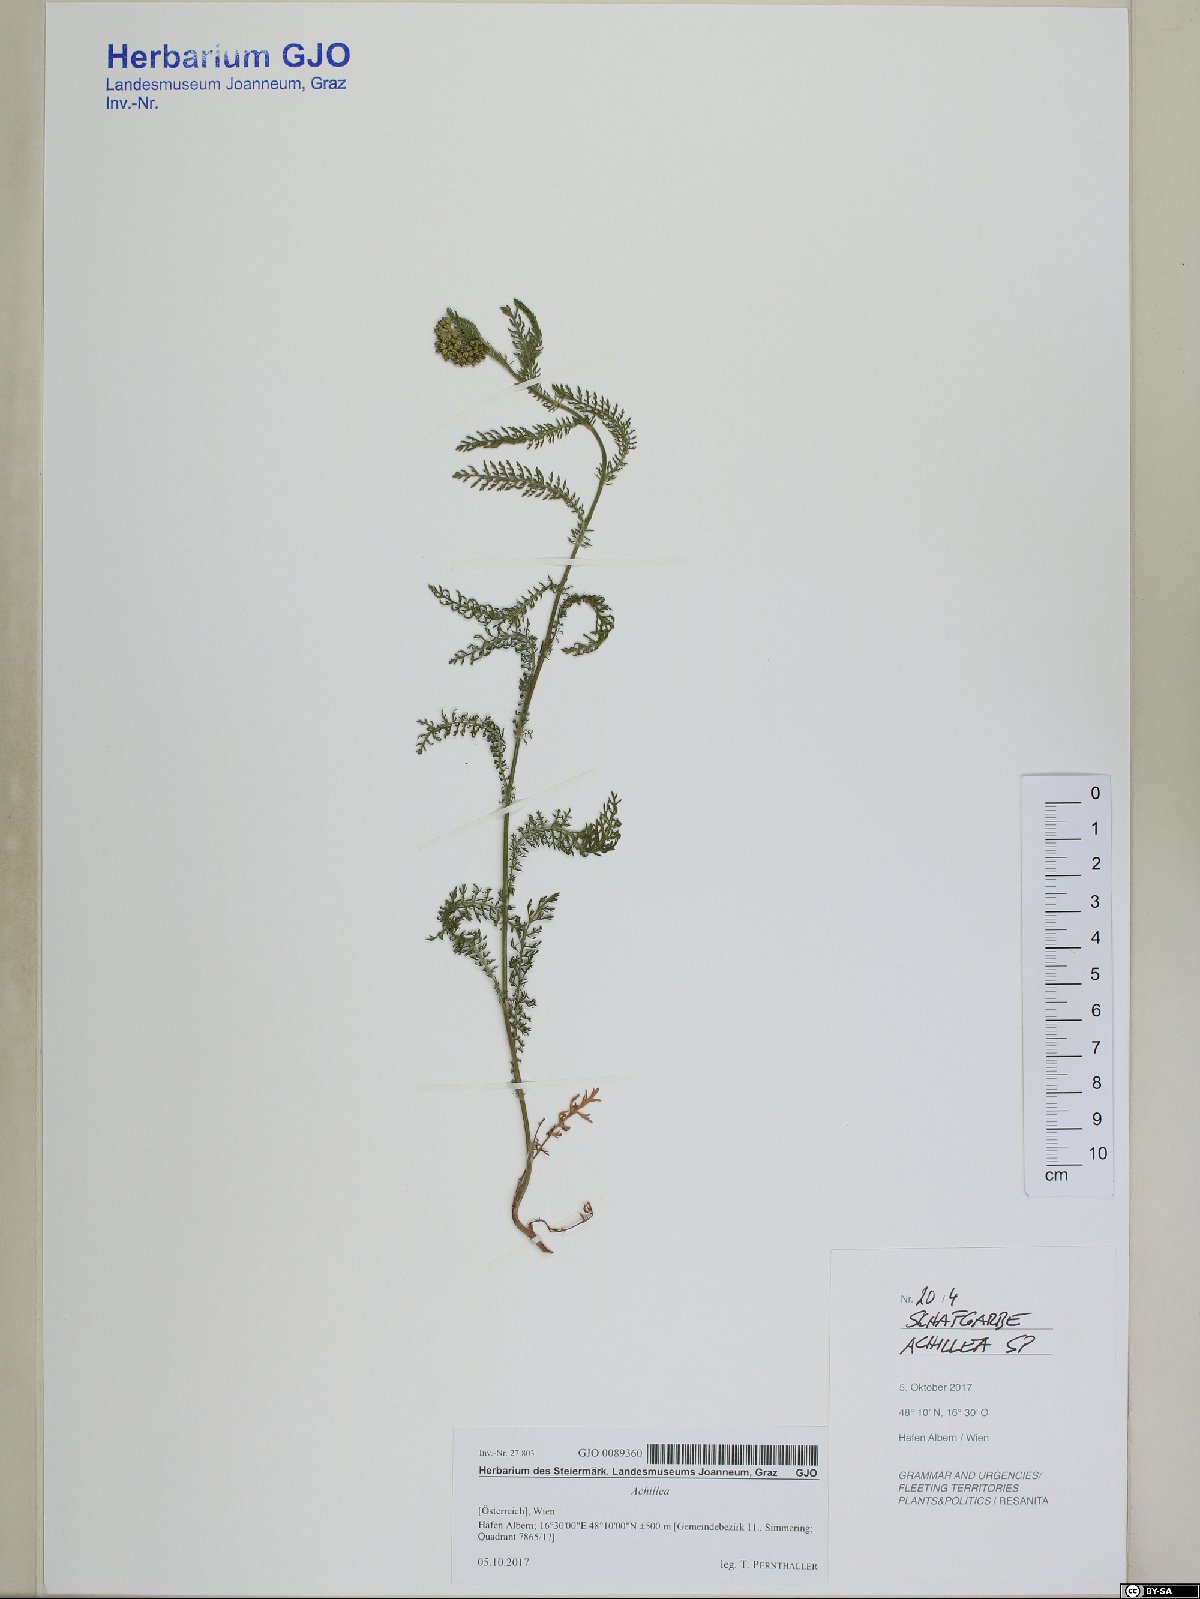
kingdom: Plantae
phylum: Tracheophyta
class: Magnoliopsida
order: Asterales
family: Asteraceae
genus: Achillea
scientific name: Achillea
